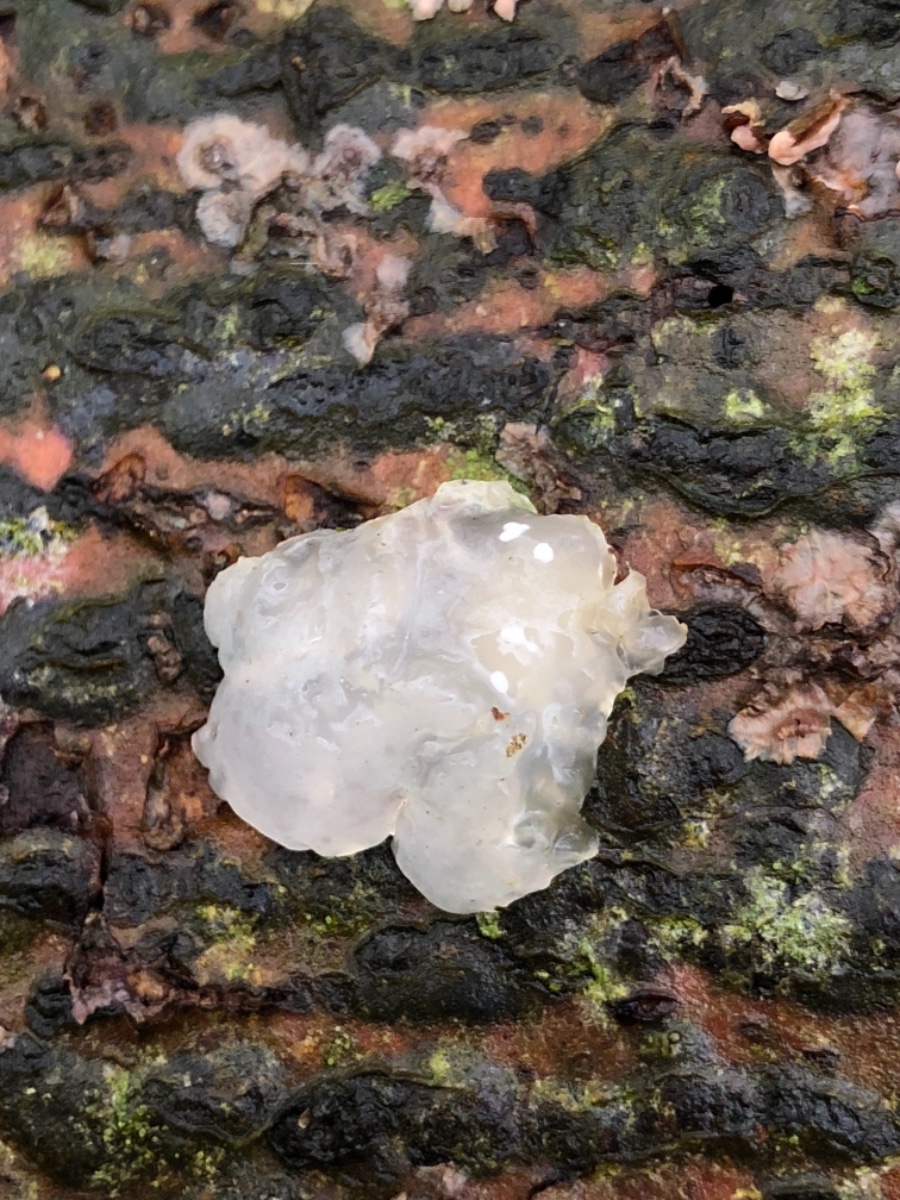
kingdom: Fungi
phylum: Basidiomycota
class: Agaricomycetes
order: Auriculariales
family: Hyaloriaceae
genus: Myxarium
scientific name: Myxarium nucleatum
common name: klar bævretop
